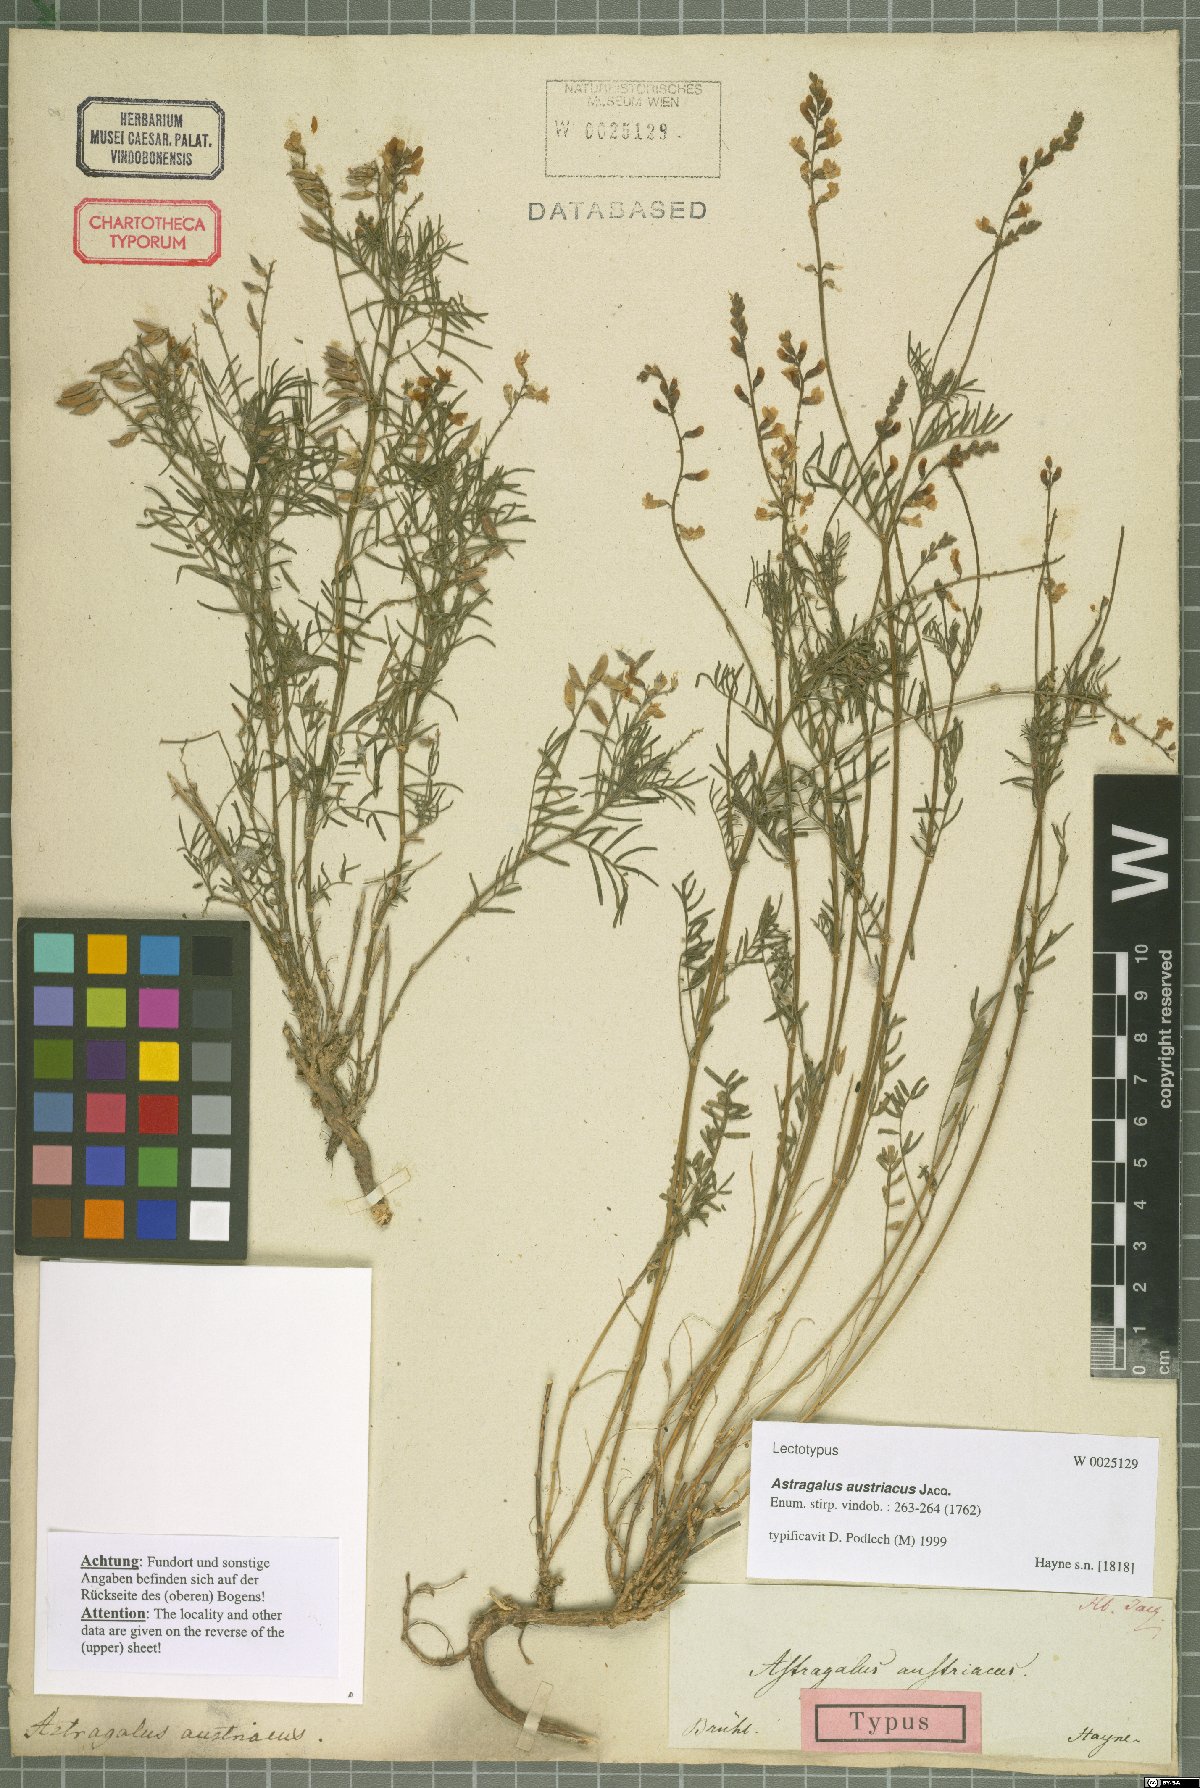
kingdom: Plantae
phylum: Tracheophyta
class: Magnoliopsida
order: Fabales
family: Fabaceae
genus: Astragalus
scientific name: Astragalus austriacus
